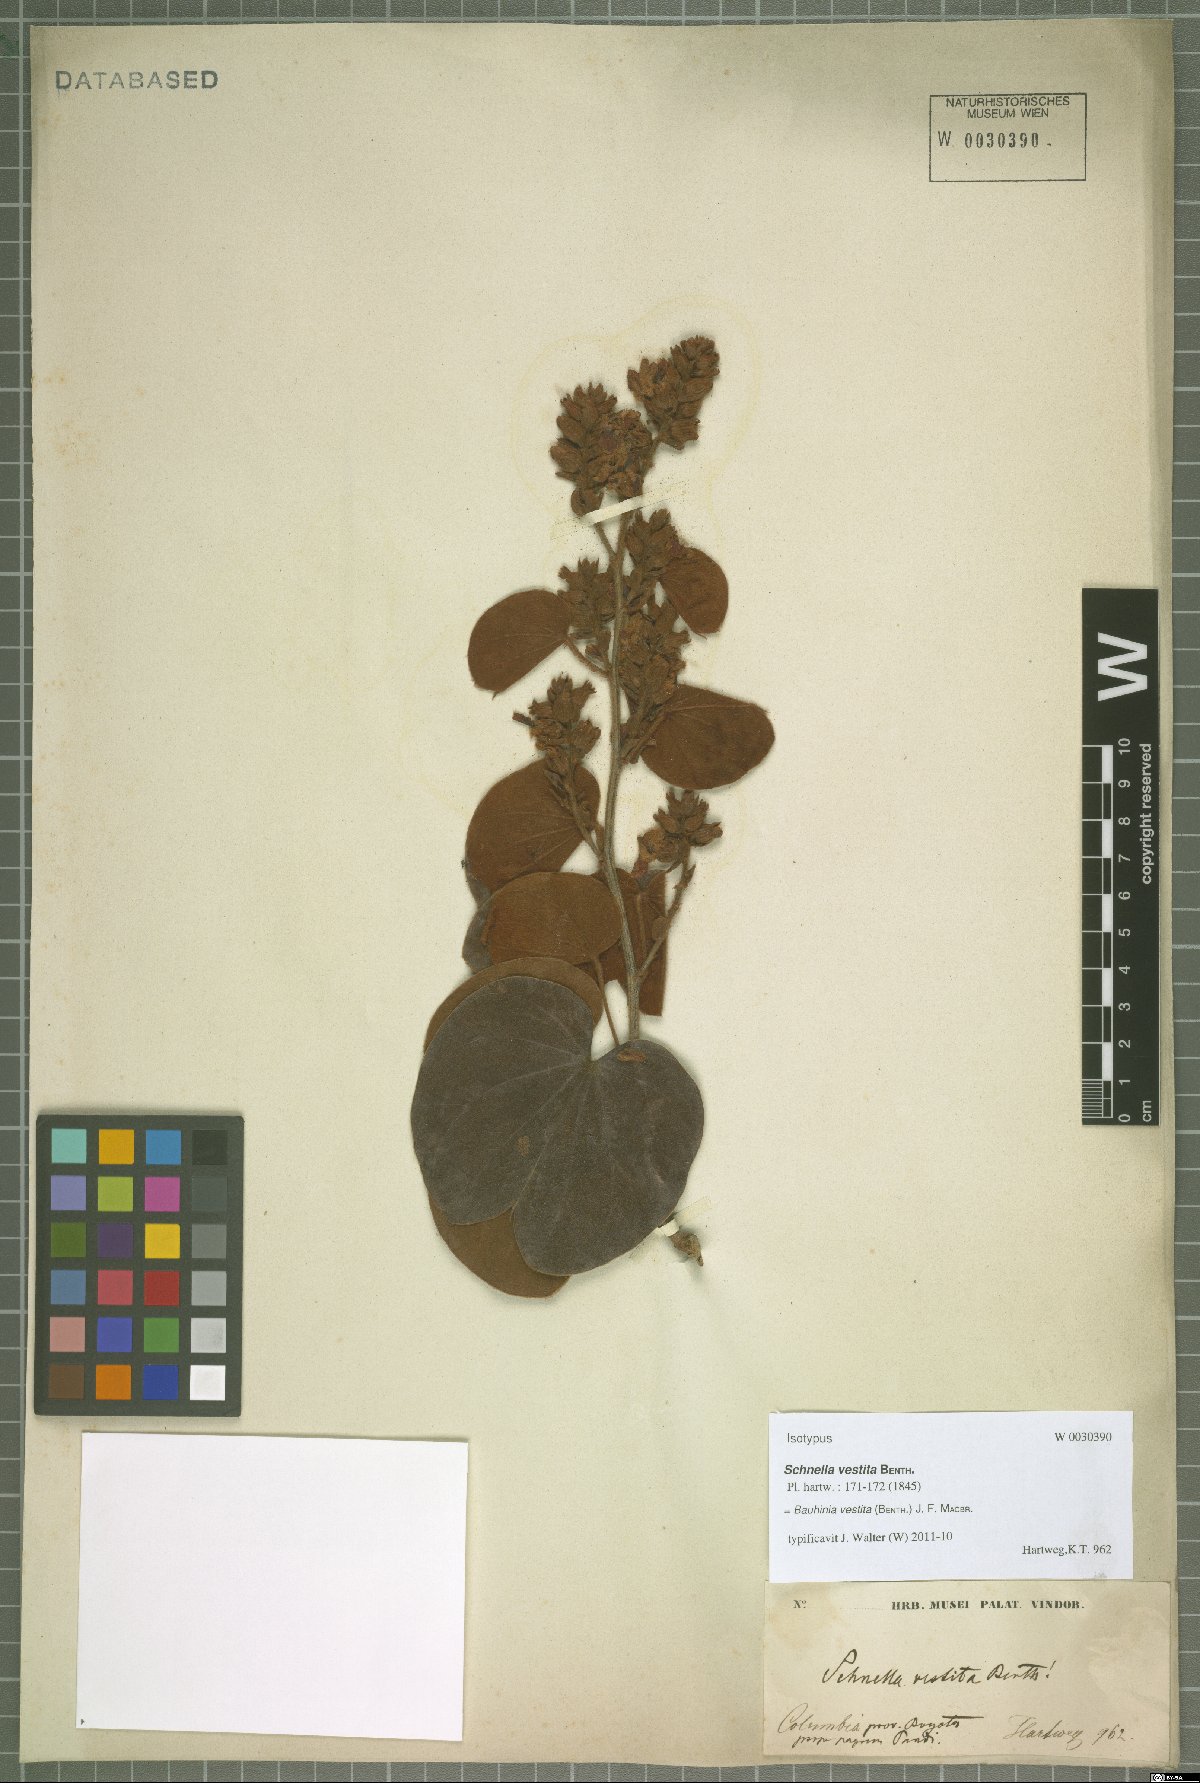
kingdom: Plantae
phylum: Tracheophyta
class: Magnoliopsida
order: Fabales
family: Fabaceae
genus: Schnella
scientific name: Schnella vestita
